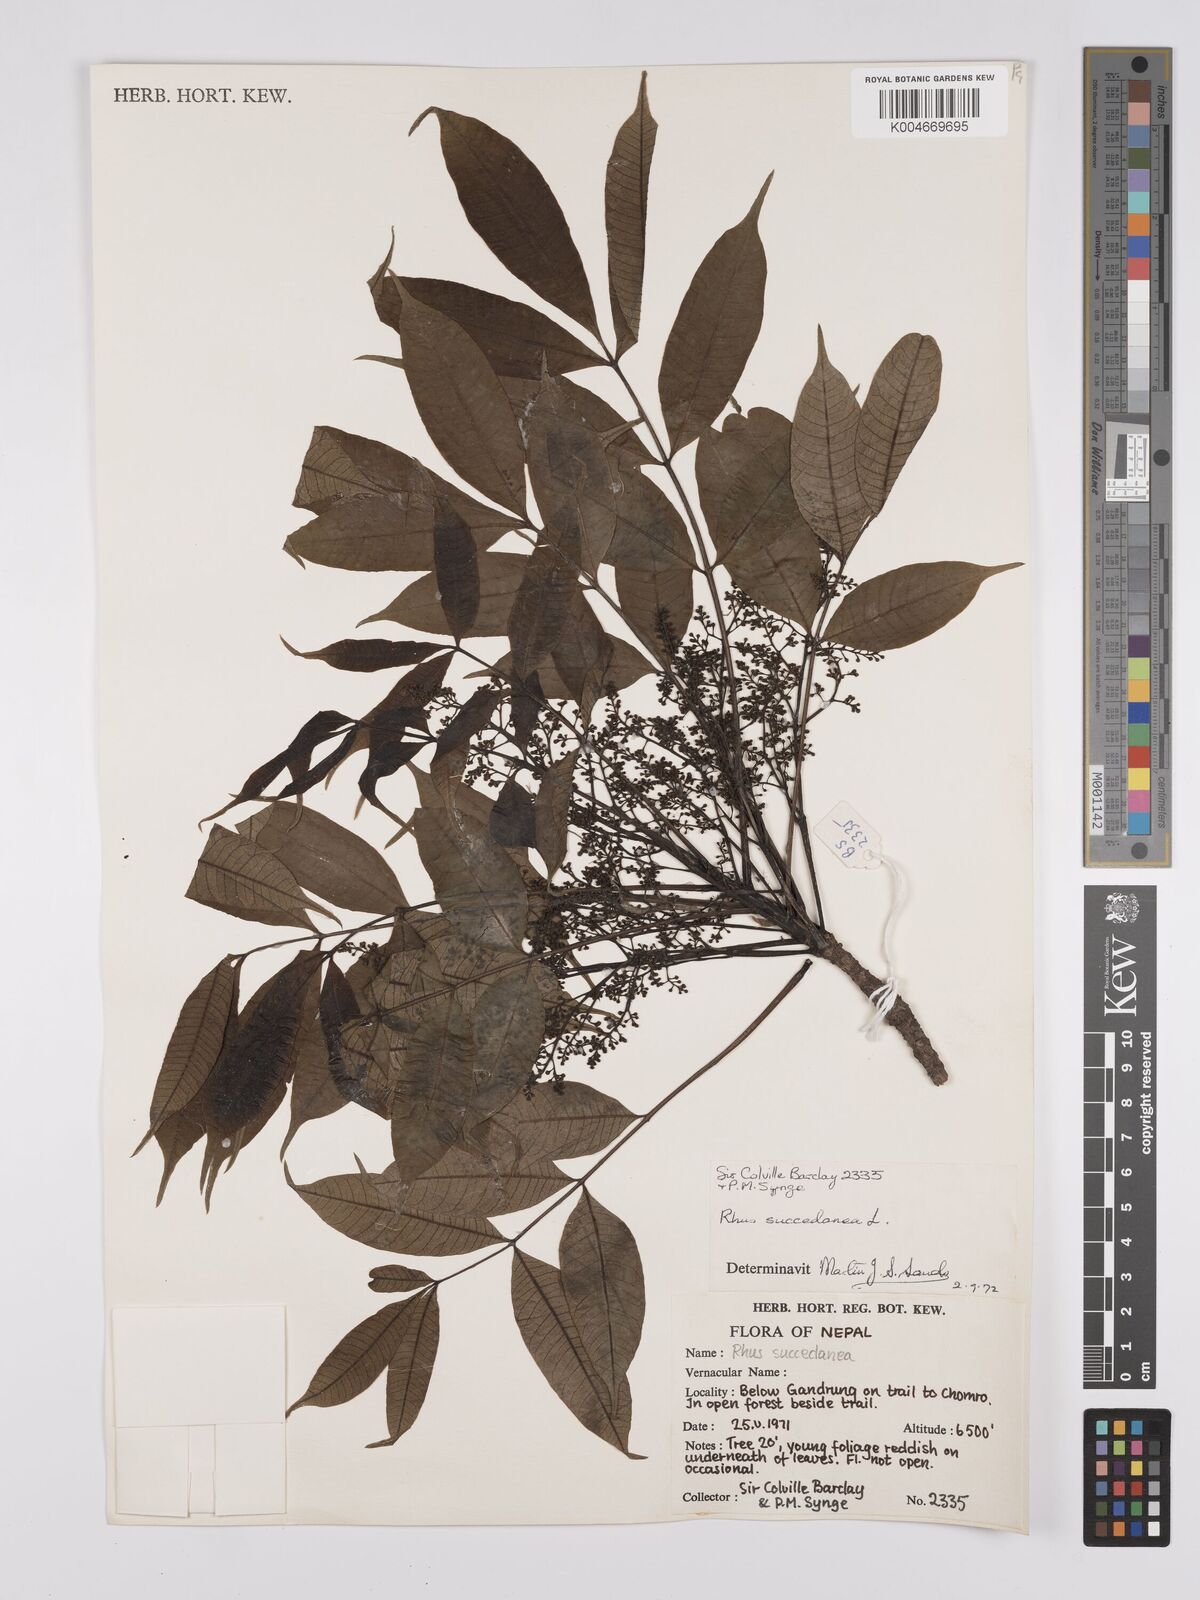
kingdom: Plantae
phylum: Tracheophyta
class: Magnoliopsida
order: Sapindales
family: Anacardiaceae
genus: Toxicodendron
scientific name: Toxicodendron succedaneum
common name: Wax tree
